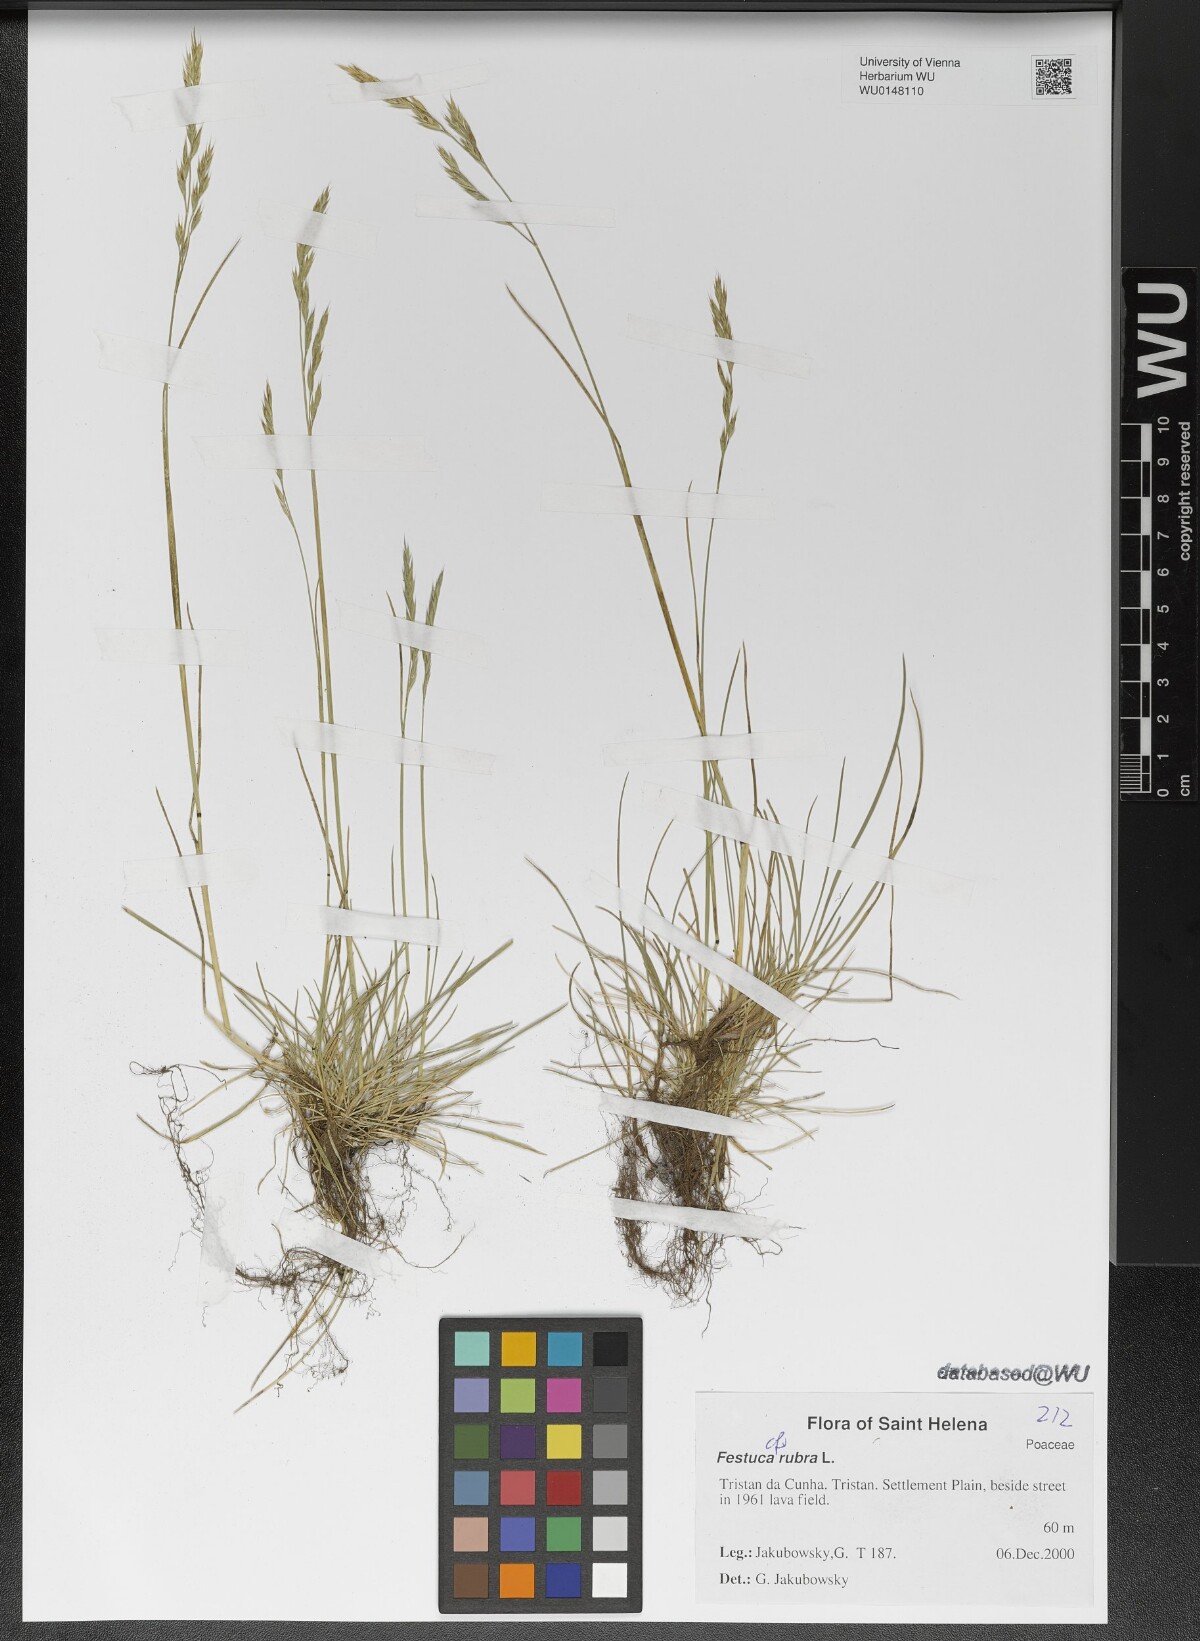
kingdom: Plantae
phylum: Tracheophyta
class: Liliopsida
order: Poales
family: Poaceae
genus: Festuca
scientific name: Festuca rubra
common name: Red fescue
